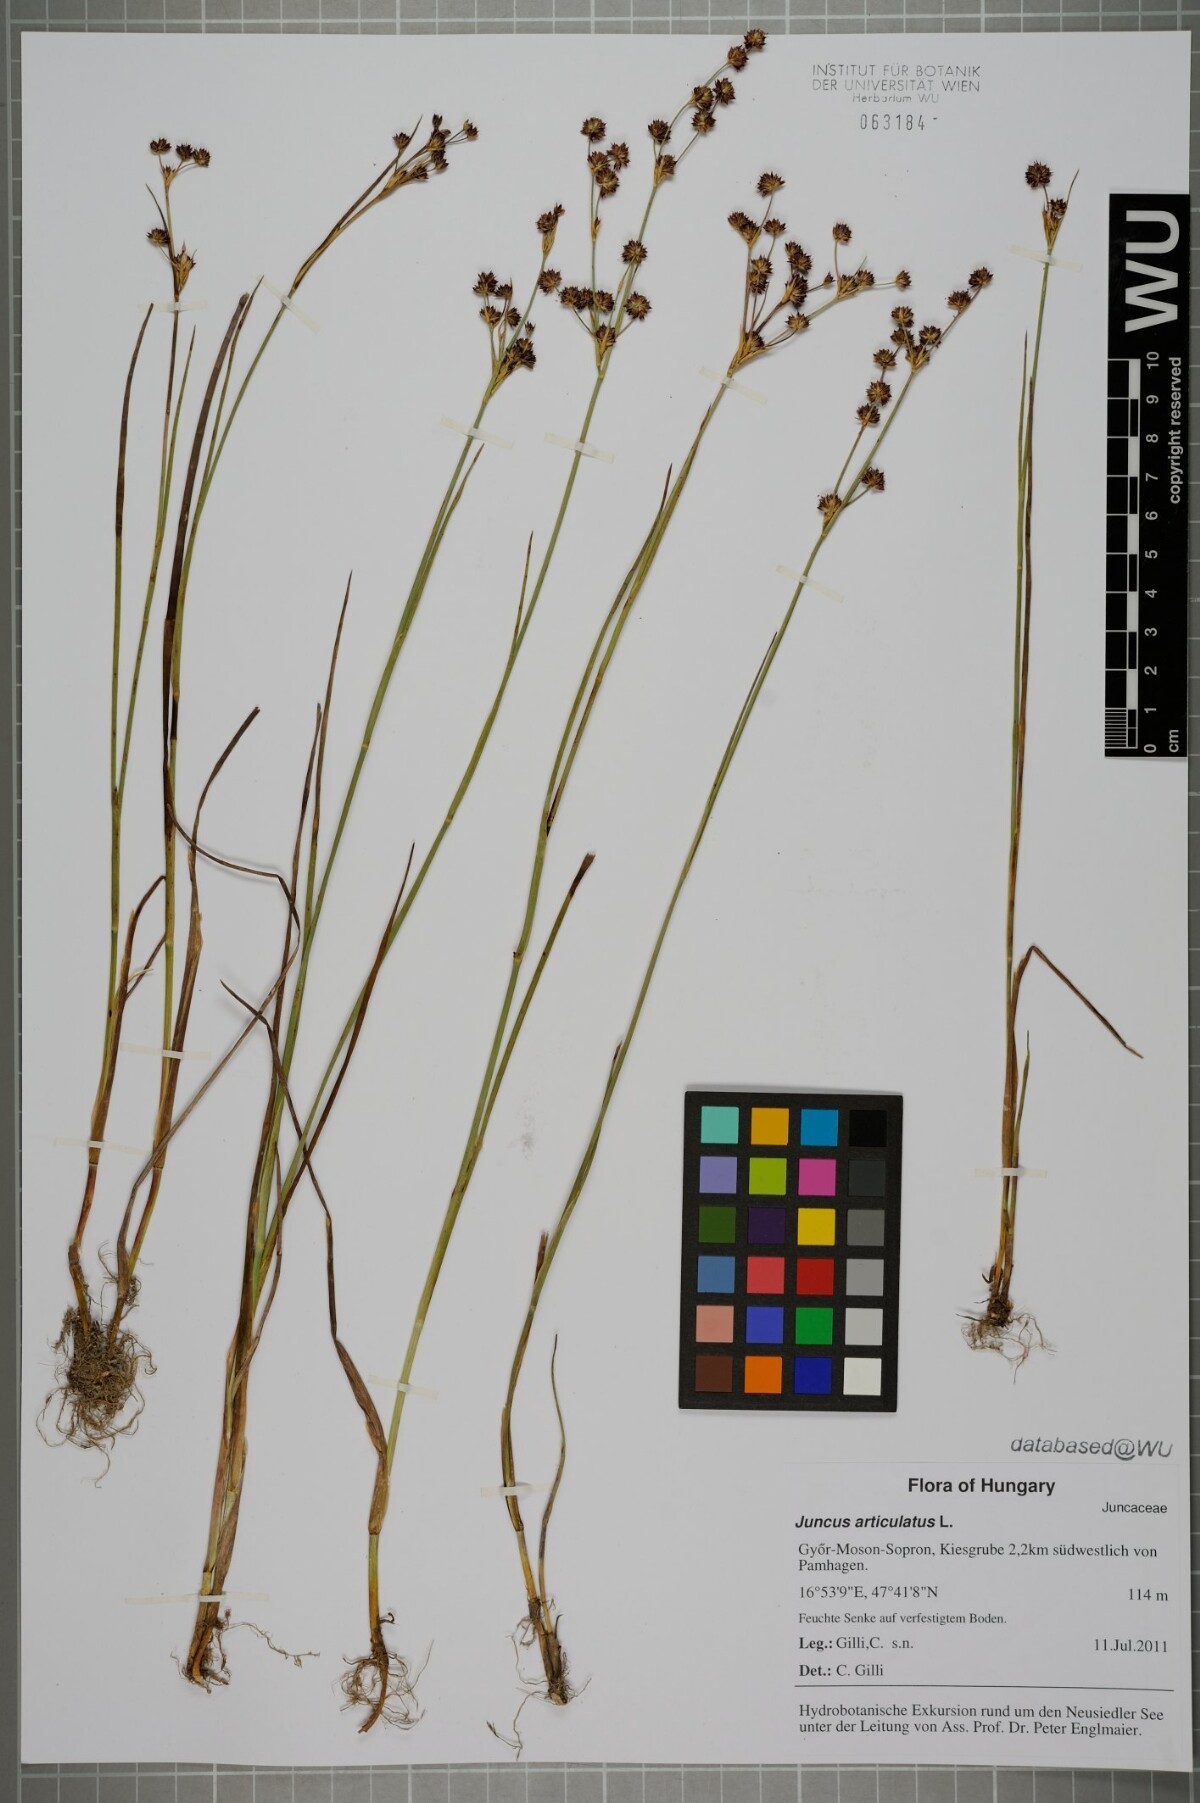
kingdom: Plantae
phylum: Tracheophyta
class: Liliopsida
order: Poales
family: Juncaceae
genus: Juncus
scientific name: Juncus articulatus
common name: Jointed rush
